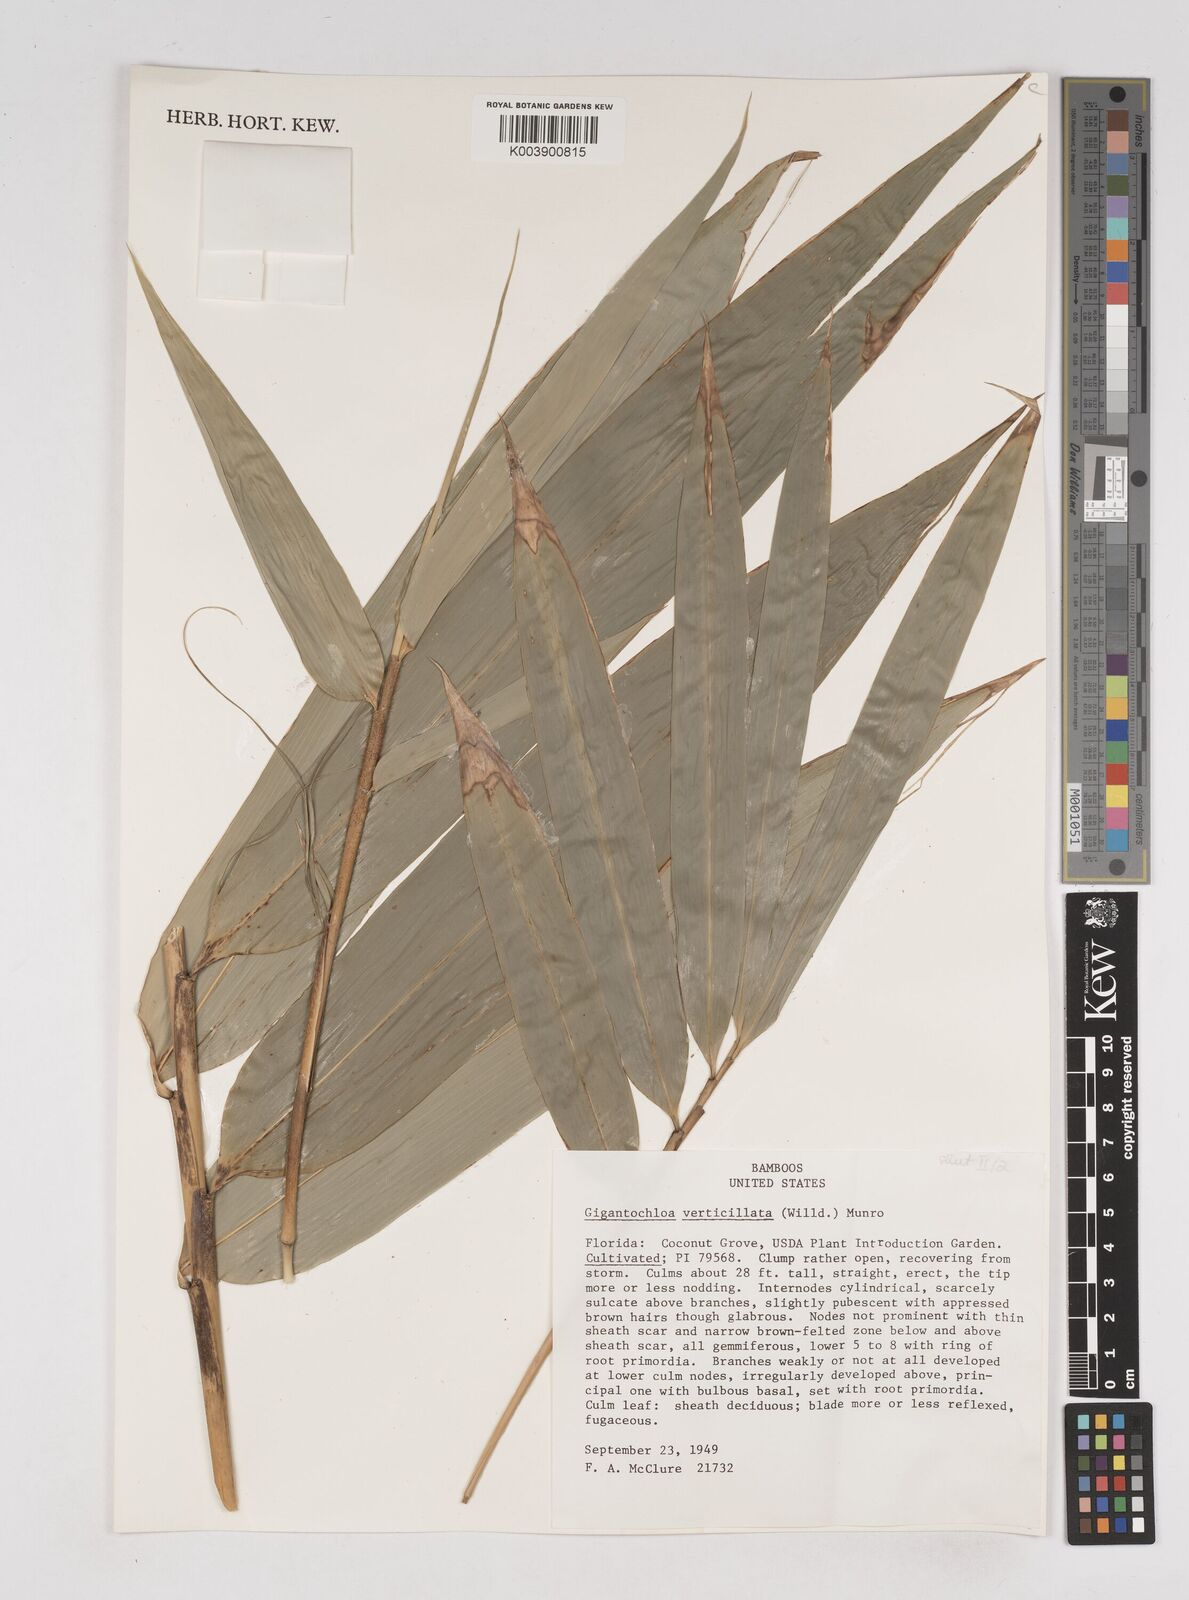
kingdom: Plantae
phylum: Tracheophyta
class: Liliopsida
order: Poales
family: Poaceae
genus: Gigantochloa
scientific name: Gigantochloa verticillata
